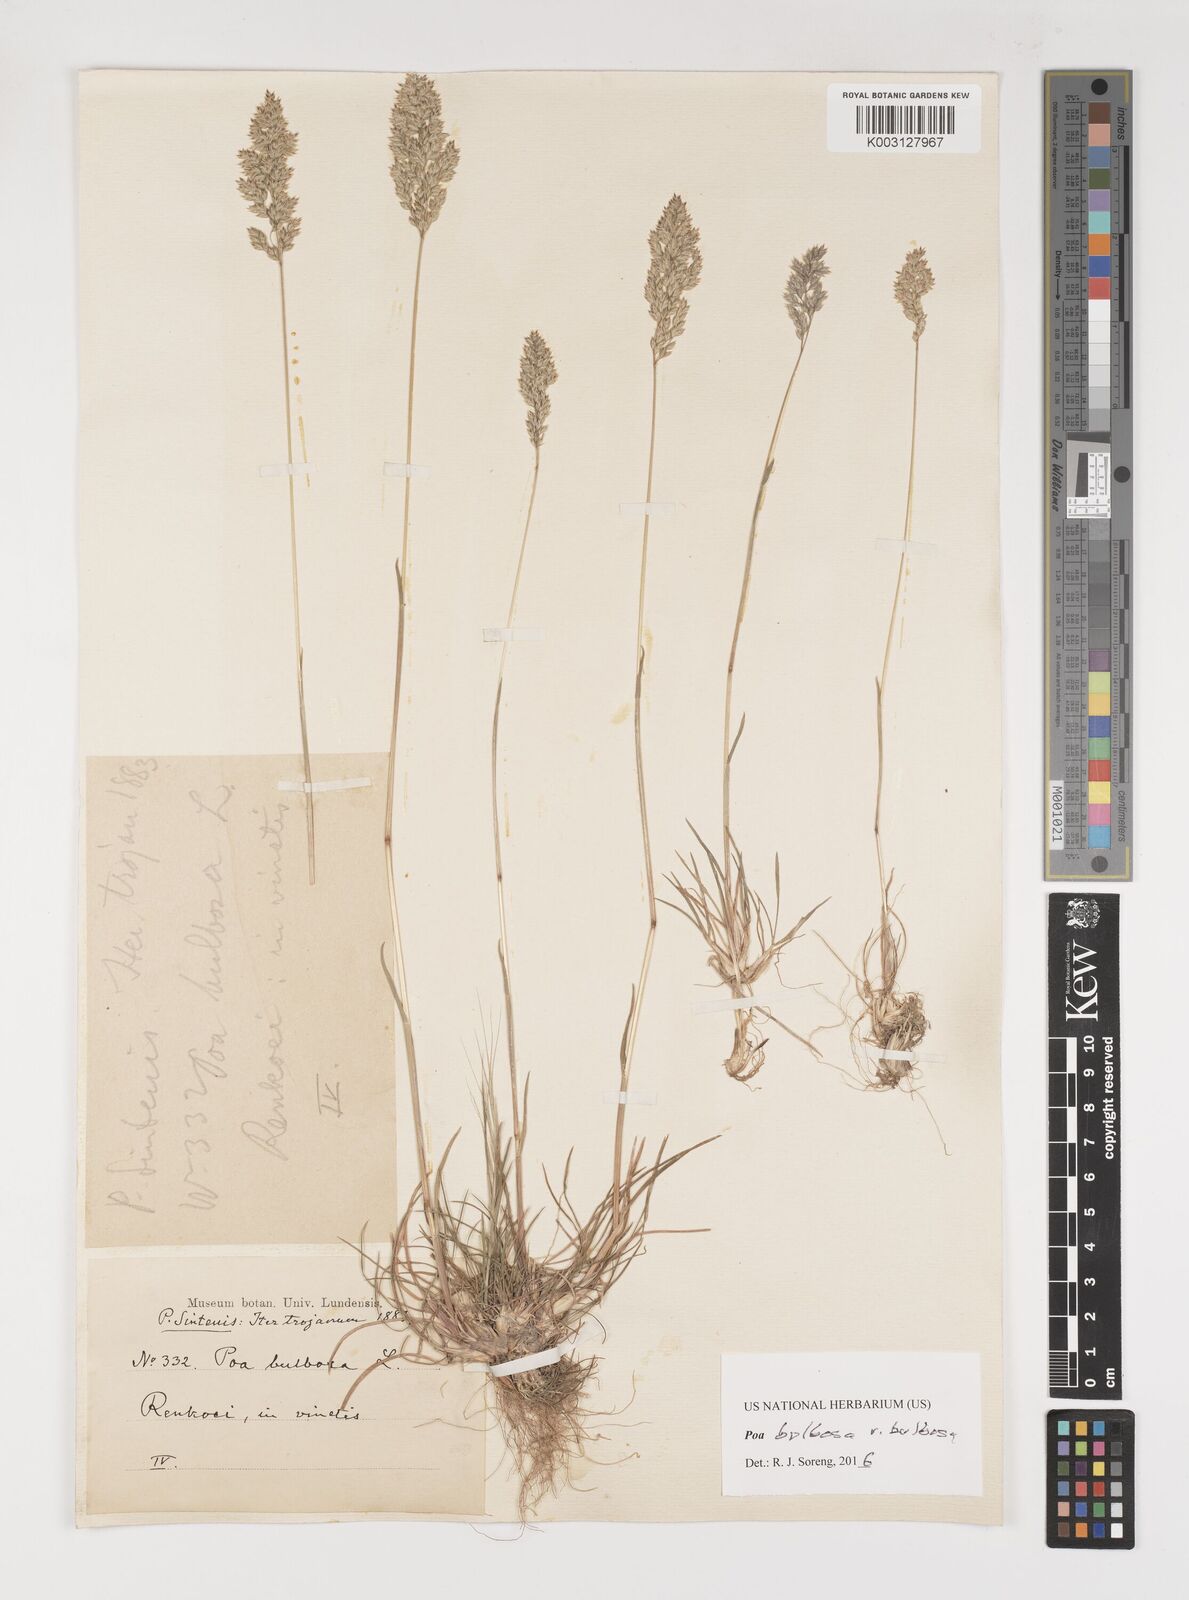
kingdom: Plantae
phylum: Tracheophyta
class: Liliopsida
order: Poales
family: Poaceae
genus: Poa
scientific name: Poa bulbosa
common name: Bulbous bluegrass
